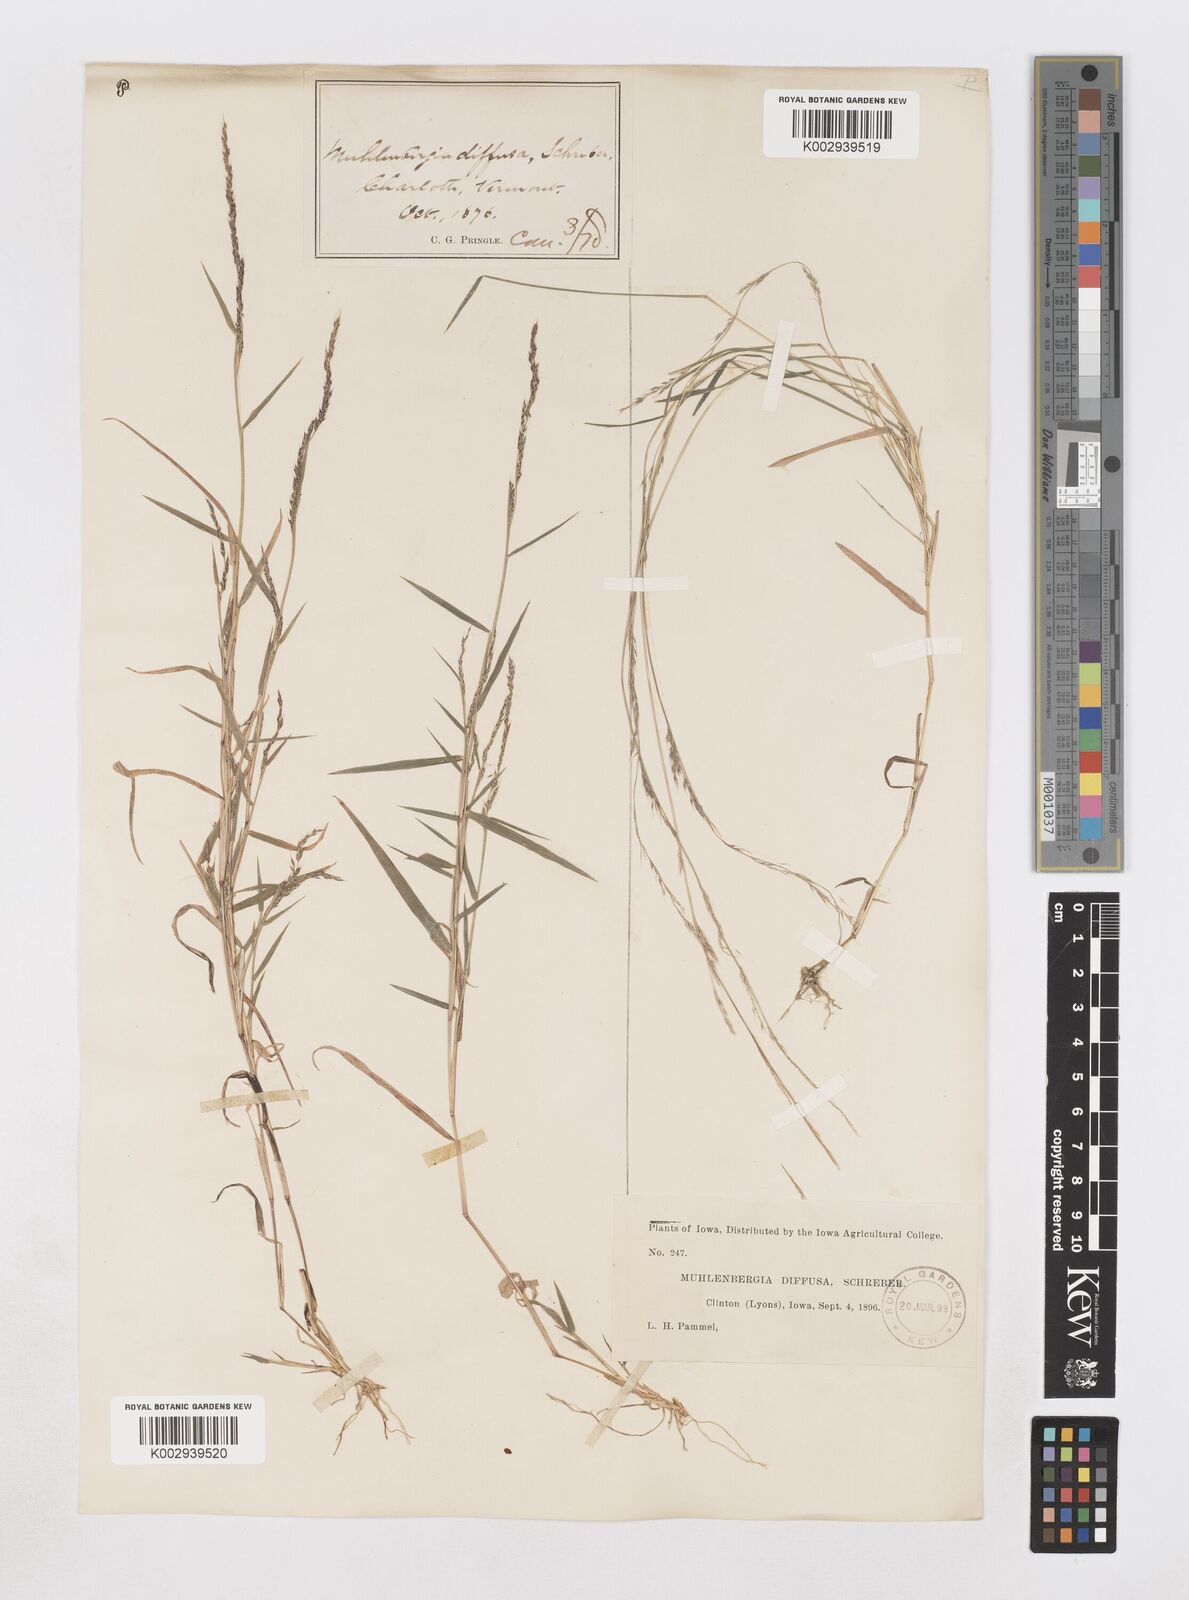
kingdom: Plantae
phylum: Tracheophyta
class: Liliopsida
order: Poales
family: Poaceae
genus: Muhlenbergia
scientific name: Muhlenbergia schreberi
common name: Nimblewill
